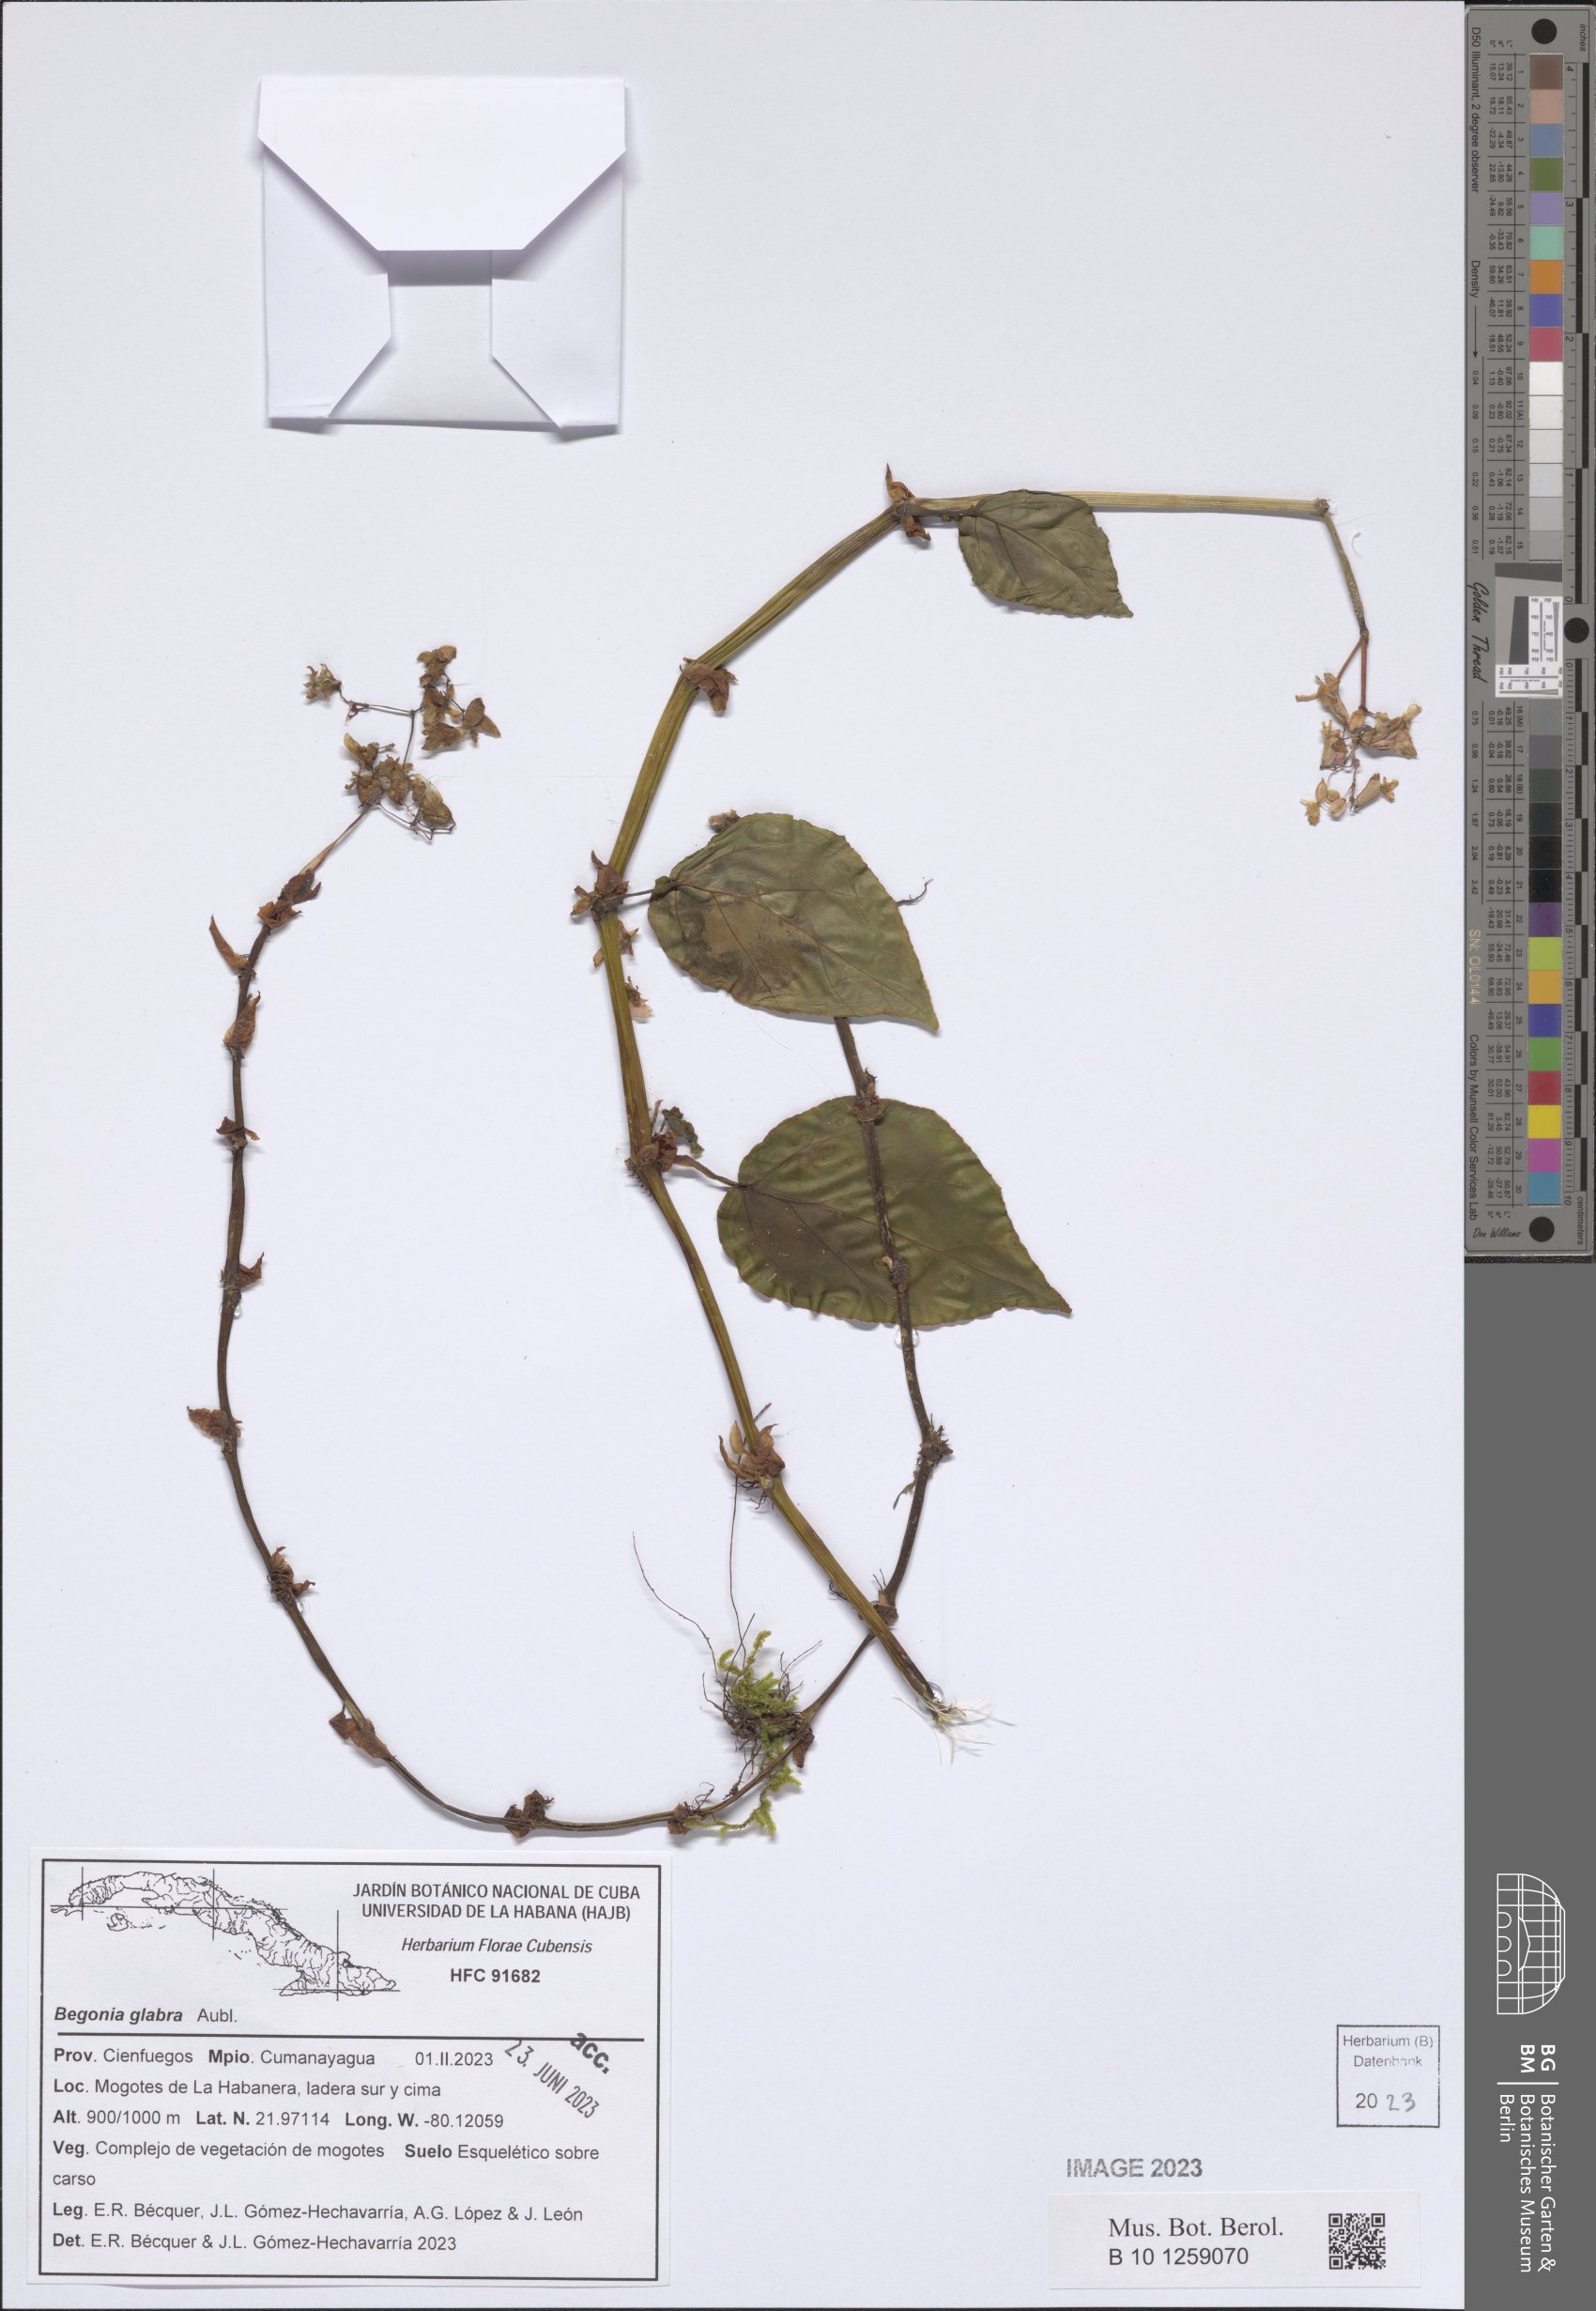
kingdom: Plantae
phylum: Tracheophyta
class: Magnoliopsida
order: Cucurbitales
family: Begoniaceae
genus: Begonia
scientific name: Begonia glabra
